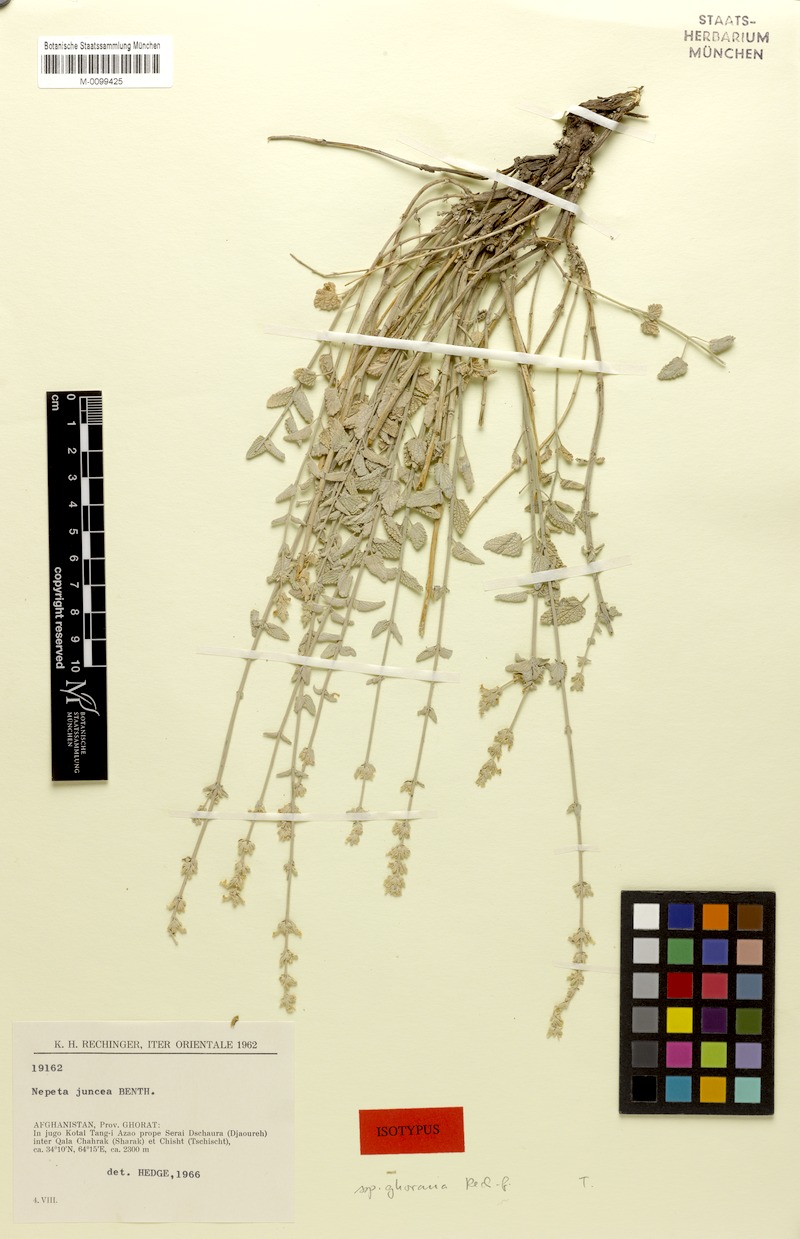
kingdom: Plantae
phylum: Tracheophyta
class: Magnoliopsida
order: Lamiales
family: Lamiaceae
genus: Nepeta
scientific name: Nepeta juncea
